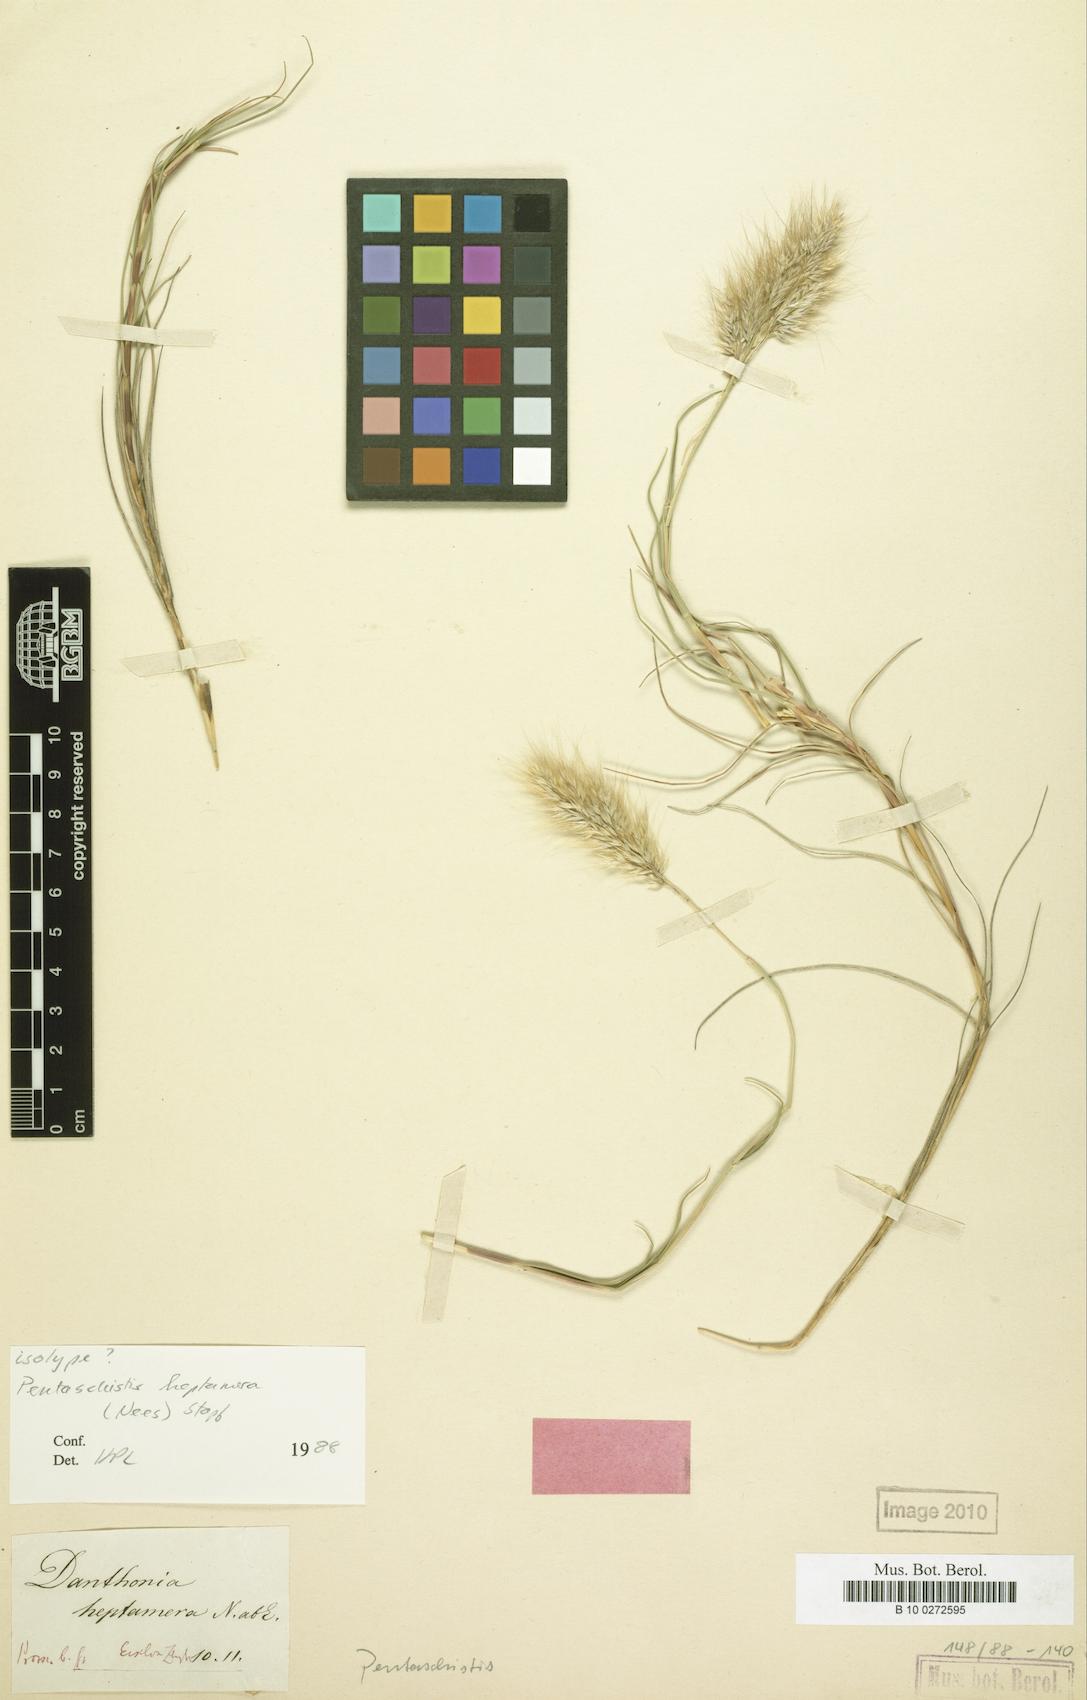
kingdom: Plantae
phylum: Tracheophyta
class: Liliopsida
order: Poales
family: Poaceae
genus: Pentameris
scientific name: Pentameris heptamera
